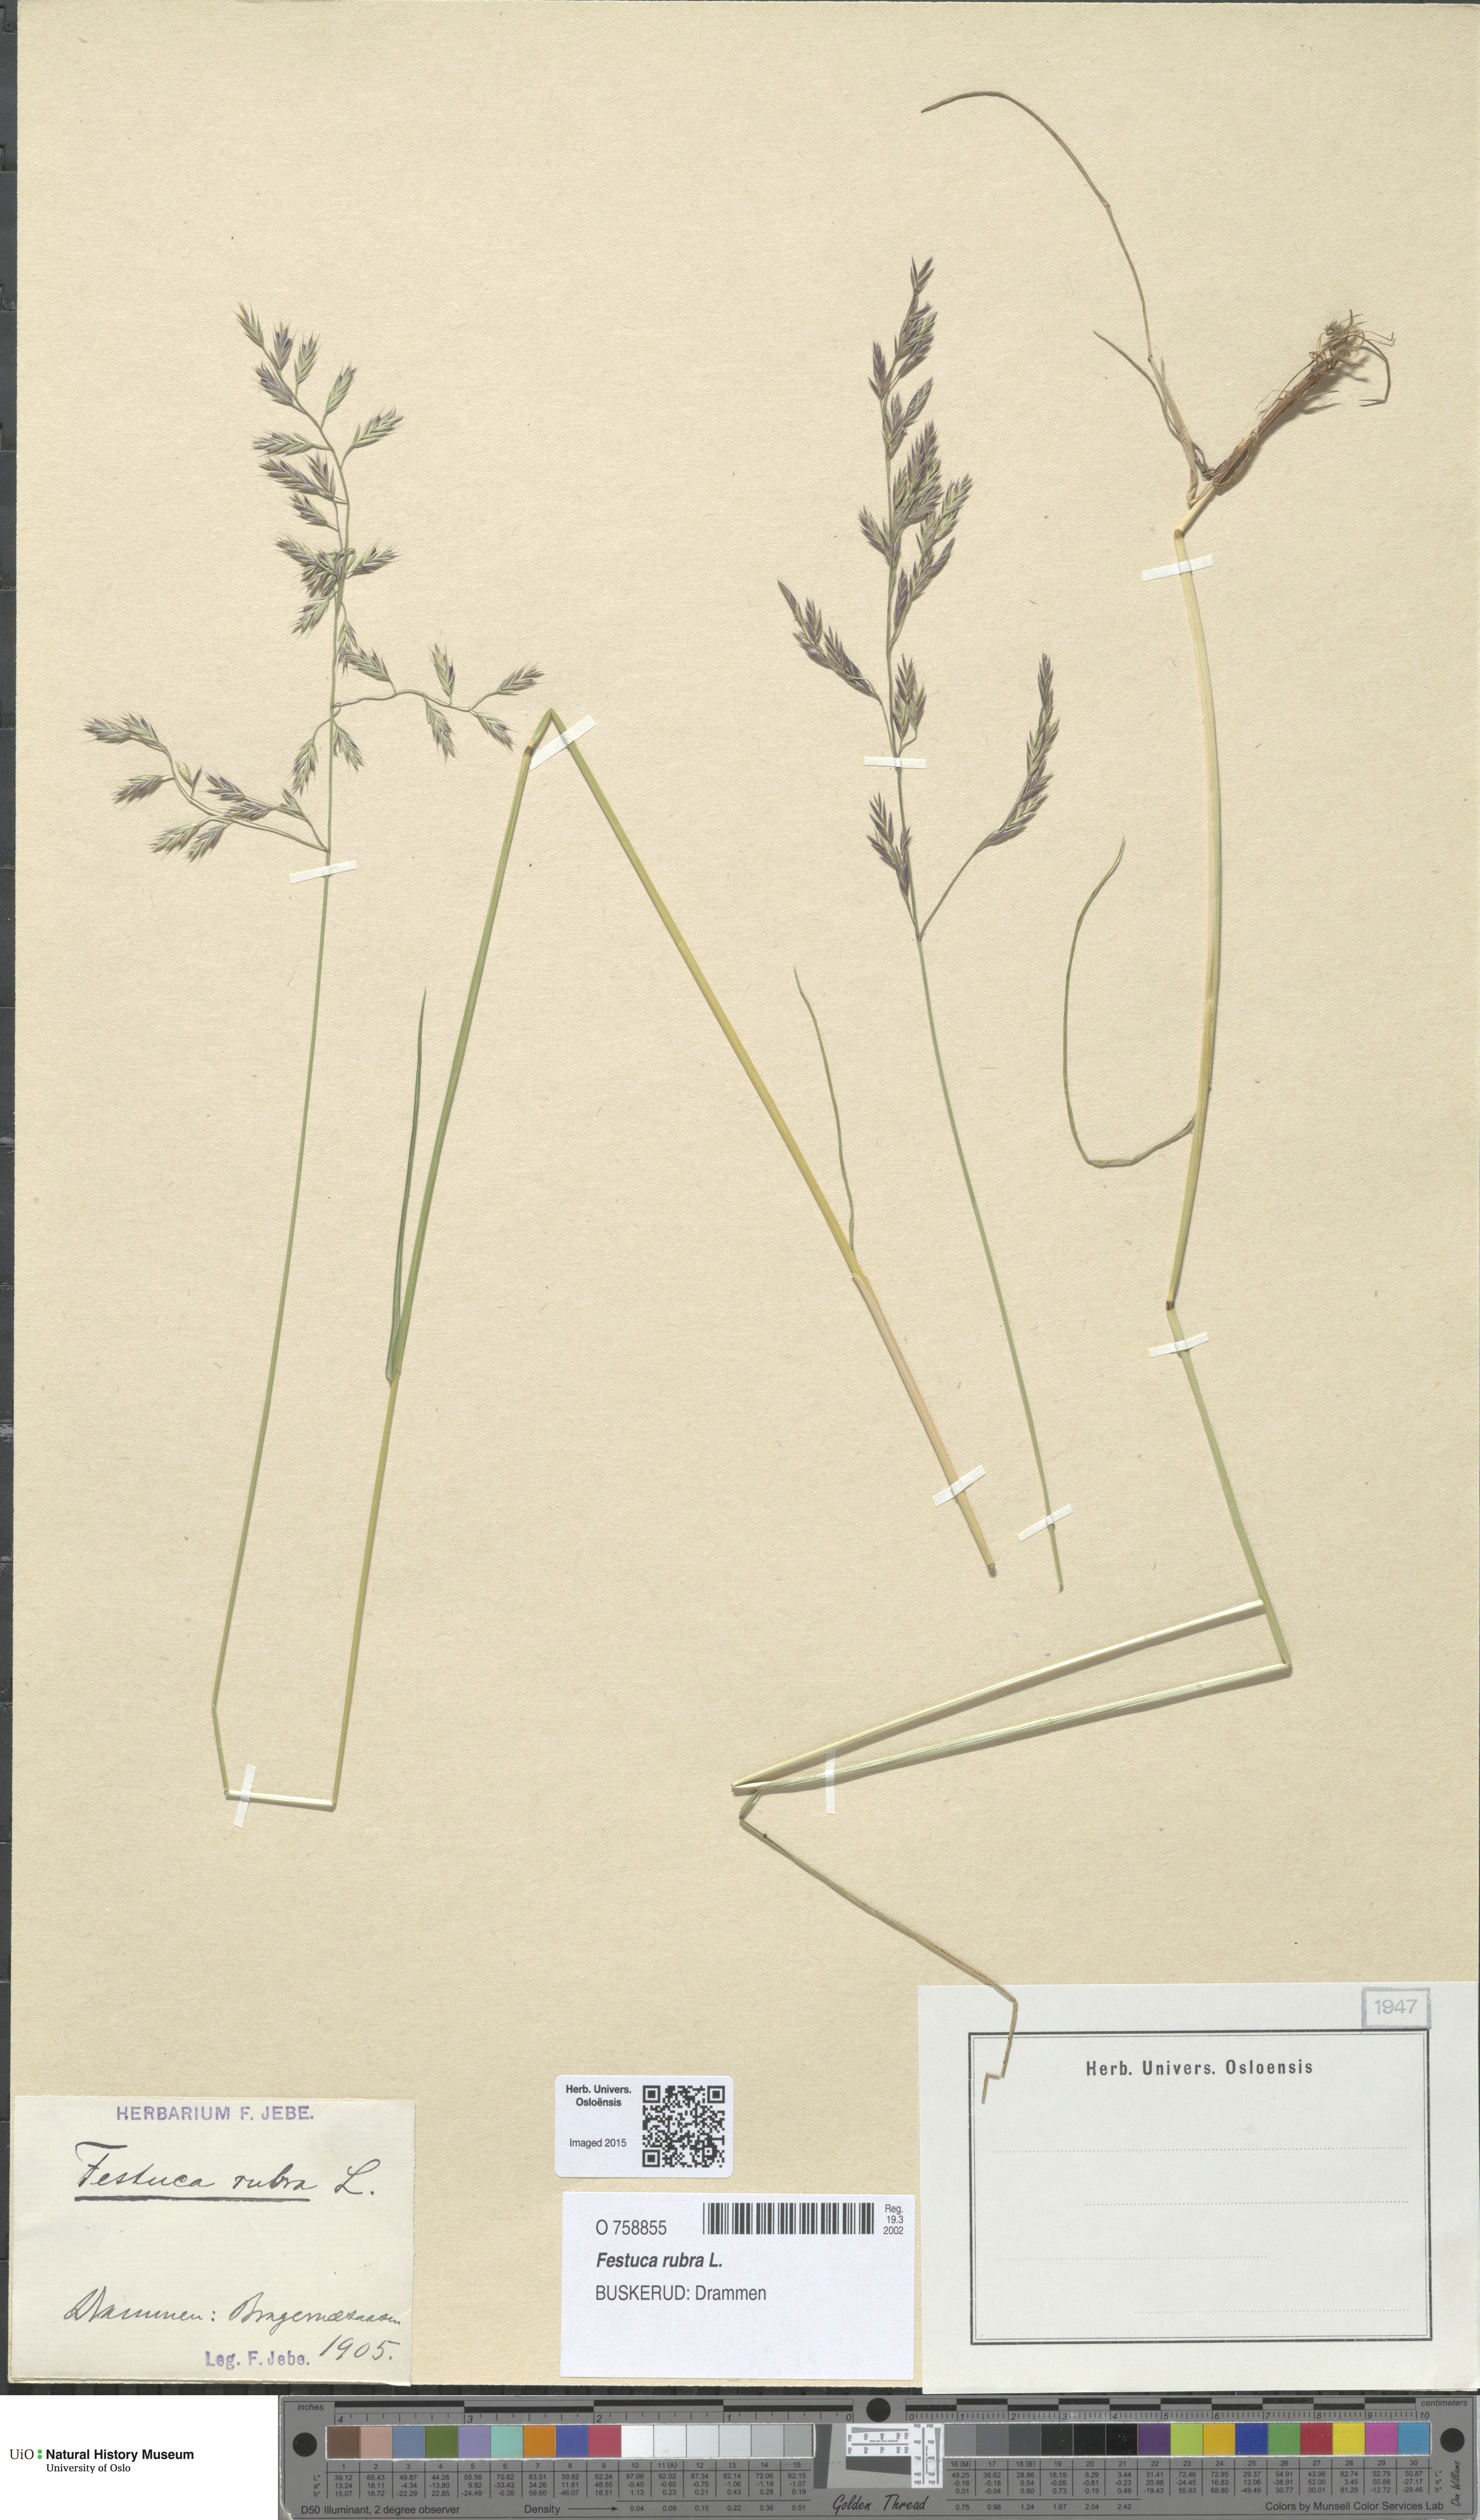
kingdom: Plantae
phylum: Tracheophyta
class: Liliopsida
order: Poales
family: Poaceae
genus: Festuca
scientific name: Festuca rubra
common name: Red fescue
